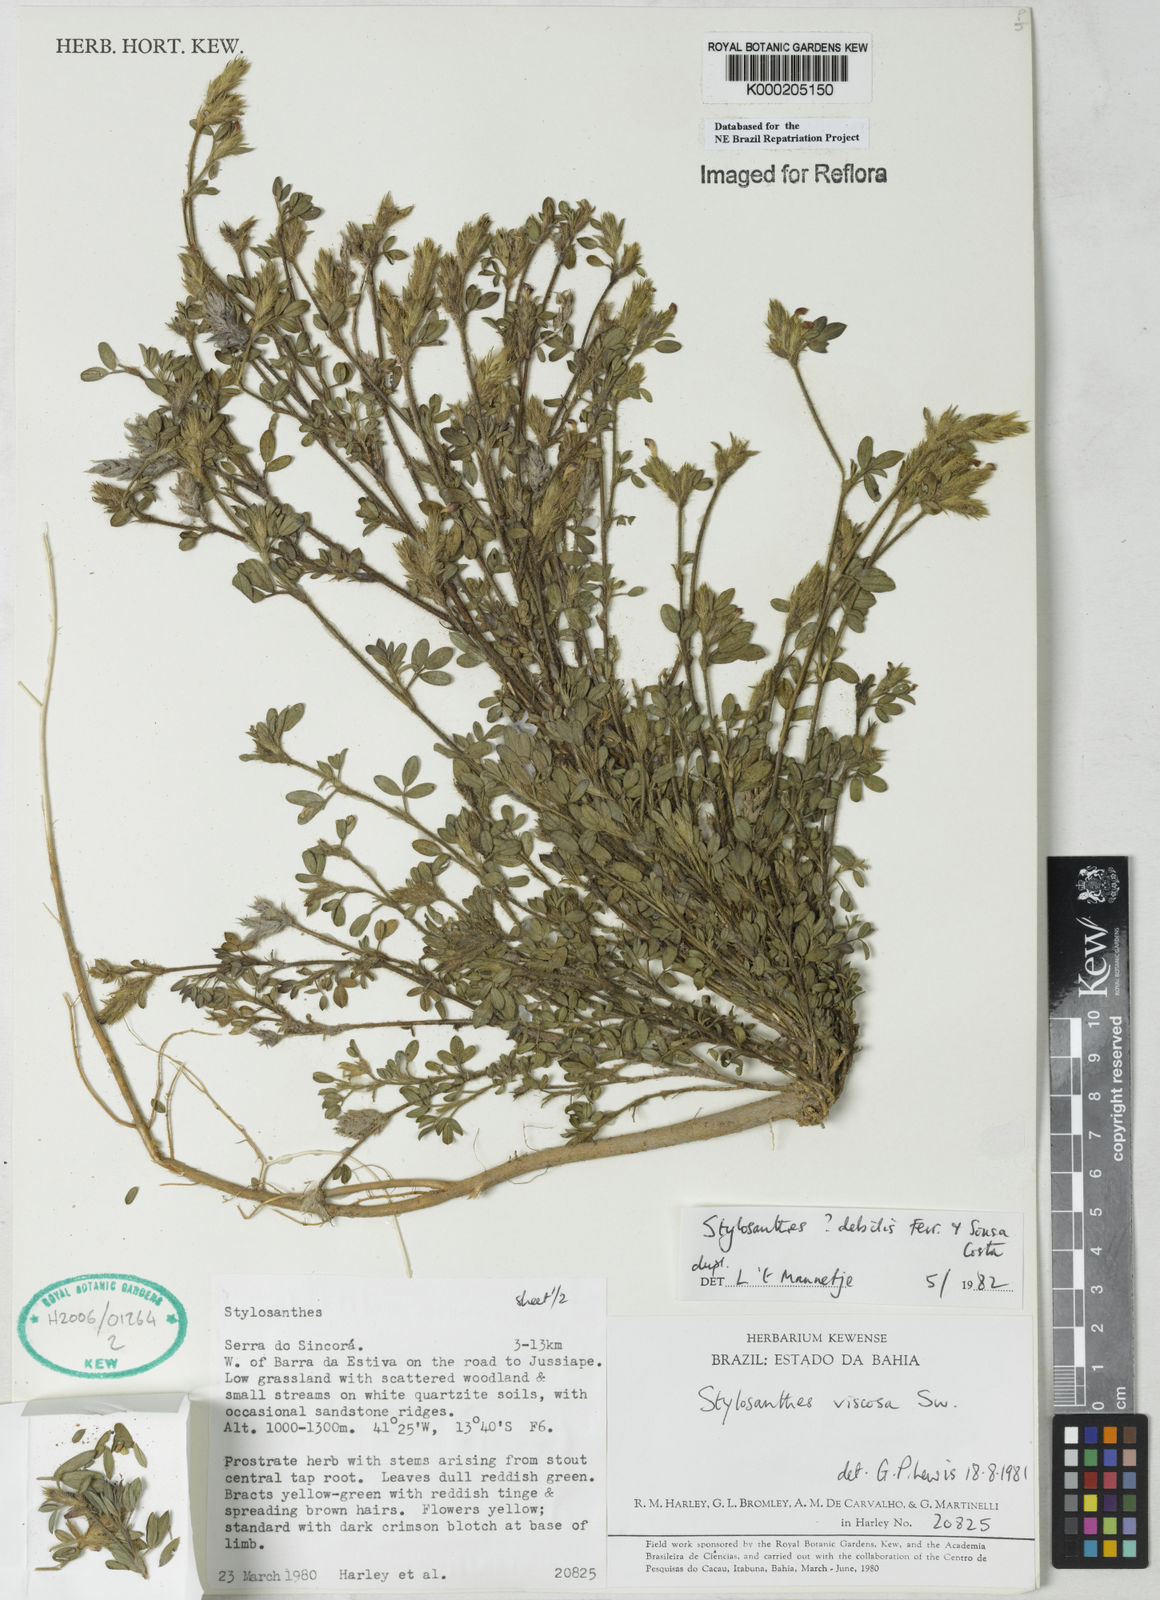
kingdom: Plantae
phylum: Tracheophyta
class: Magnoliopsida
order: Fabales
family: Fabaceae
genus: Stylosanthes
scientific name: Stylosanthes leiocarpa
